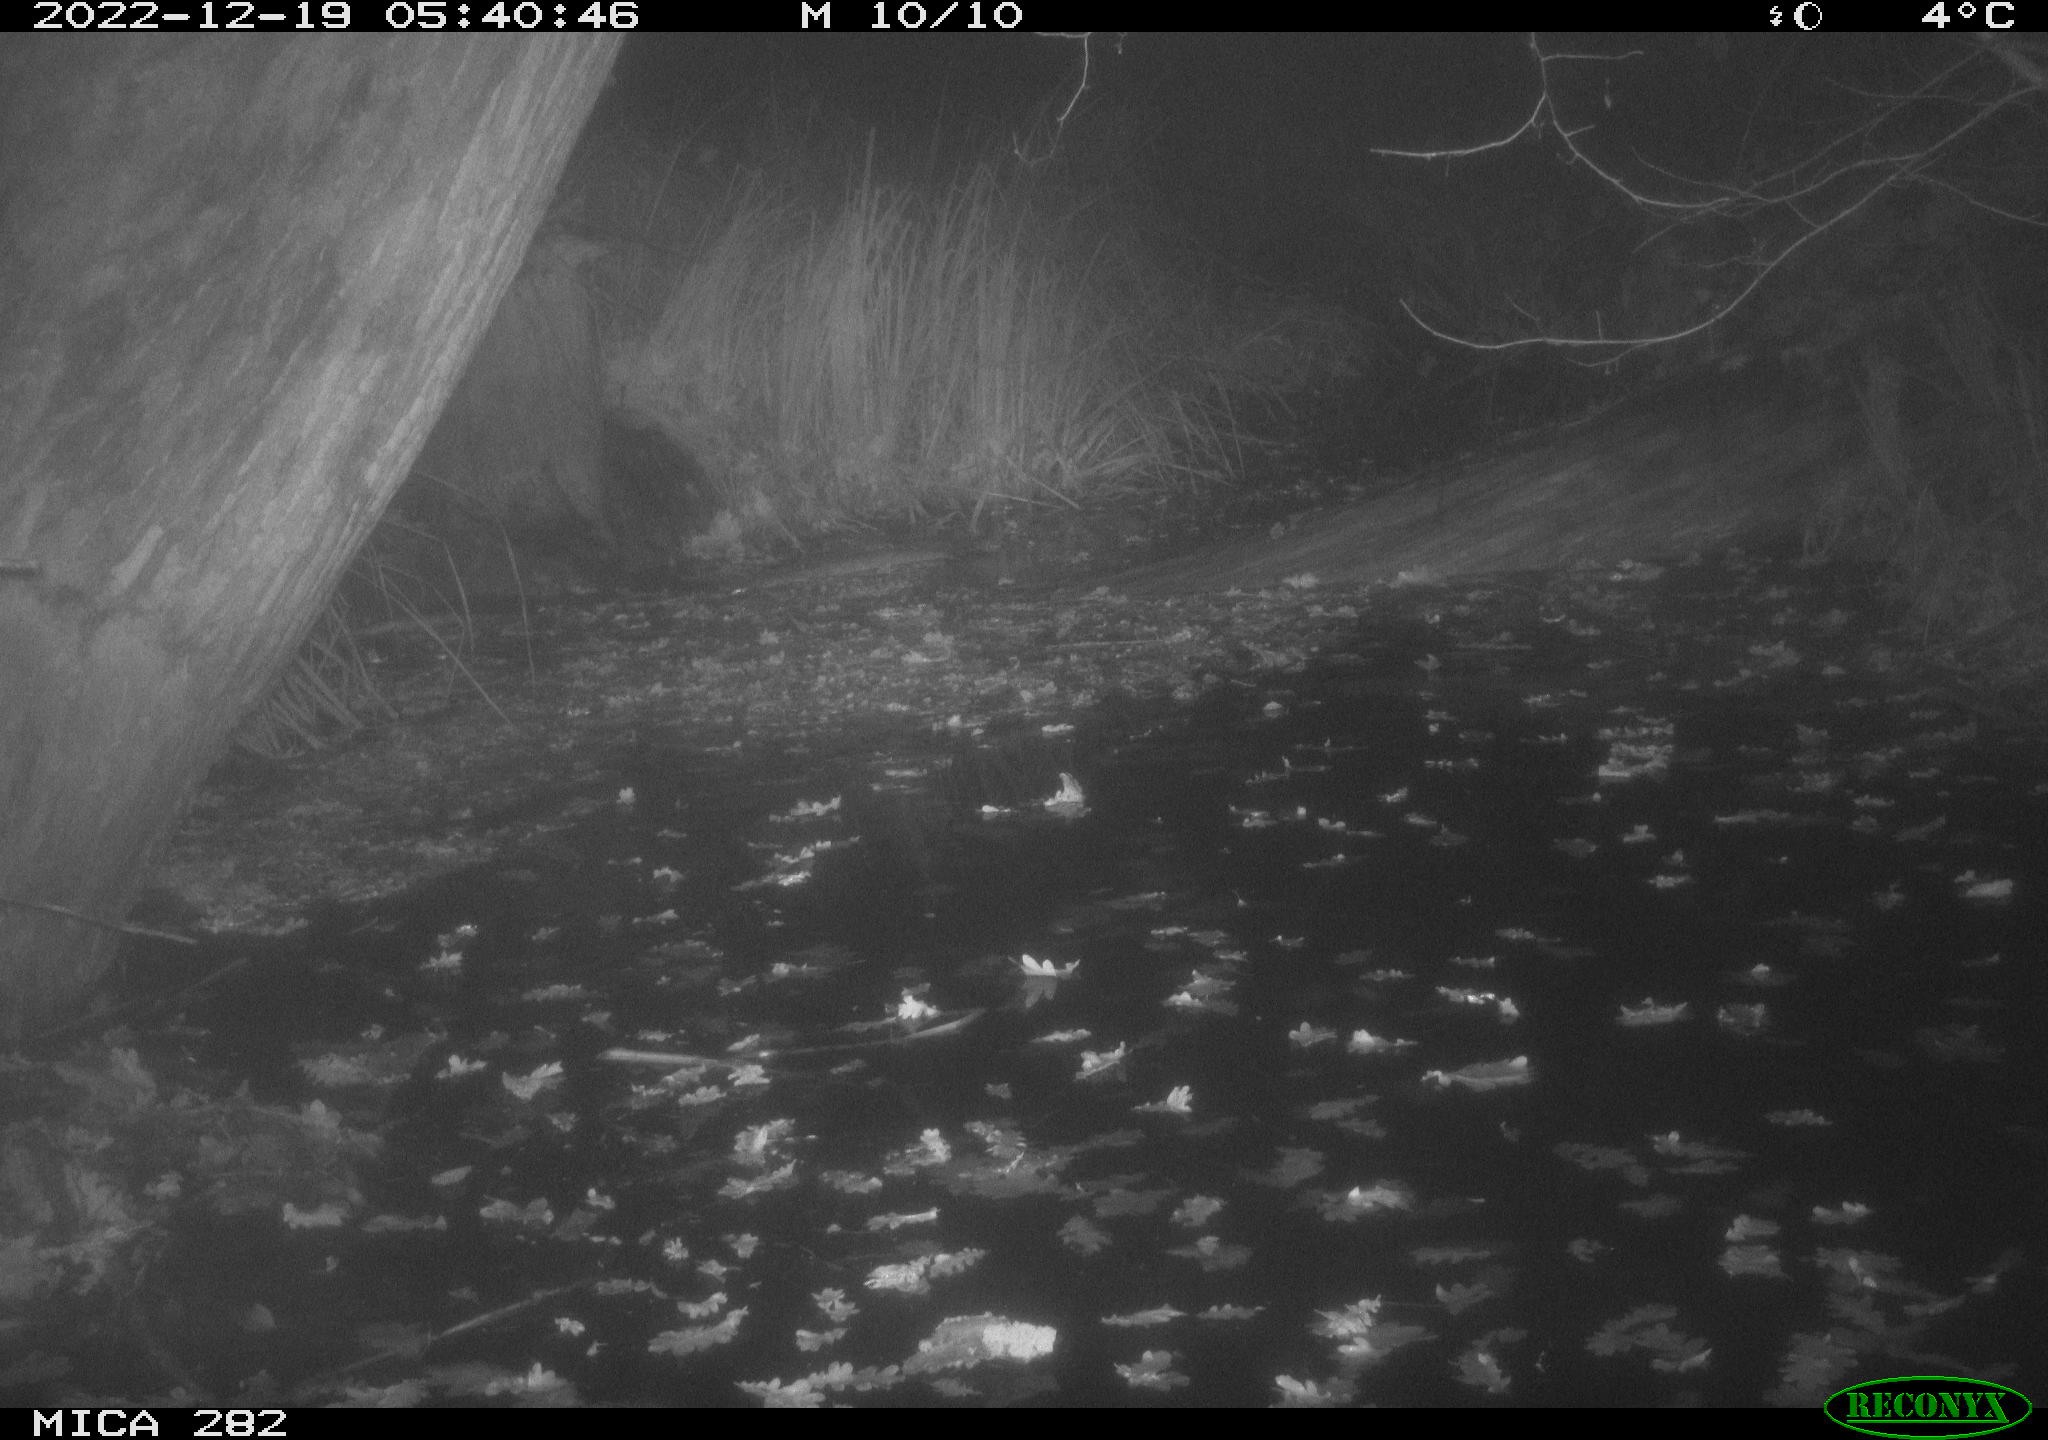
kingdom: Animalia
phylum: Chordata
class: Mammalia
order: Carnivora
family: Procyonidae
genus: Procyon
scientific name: Procyon lotor
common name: Raccoon
